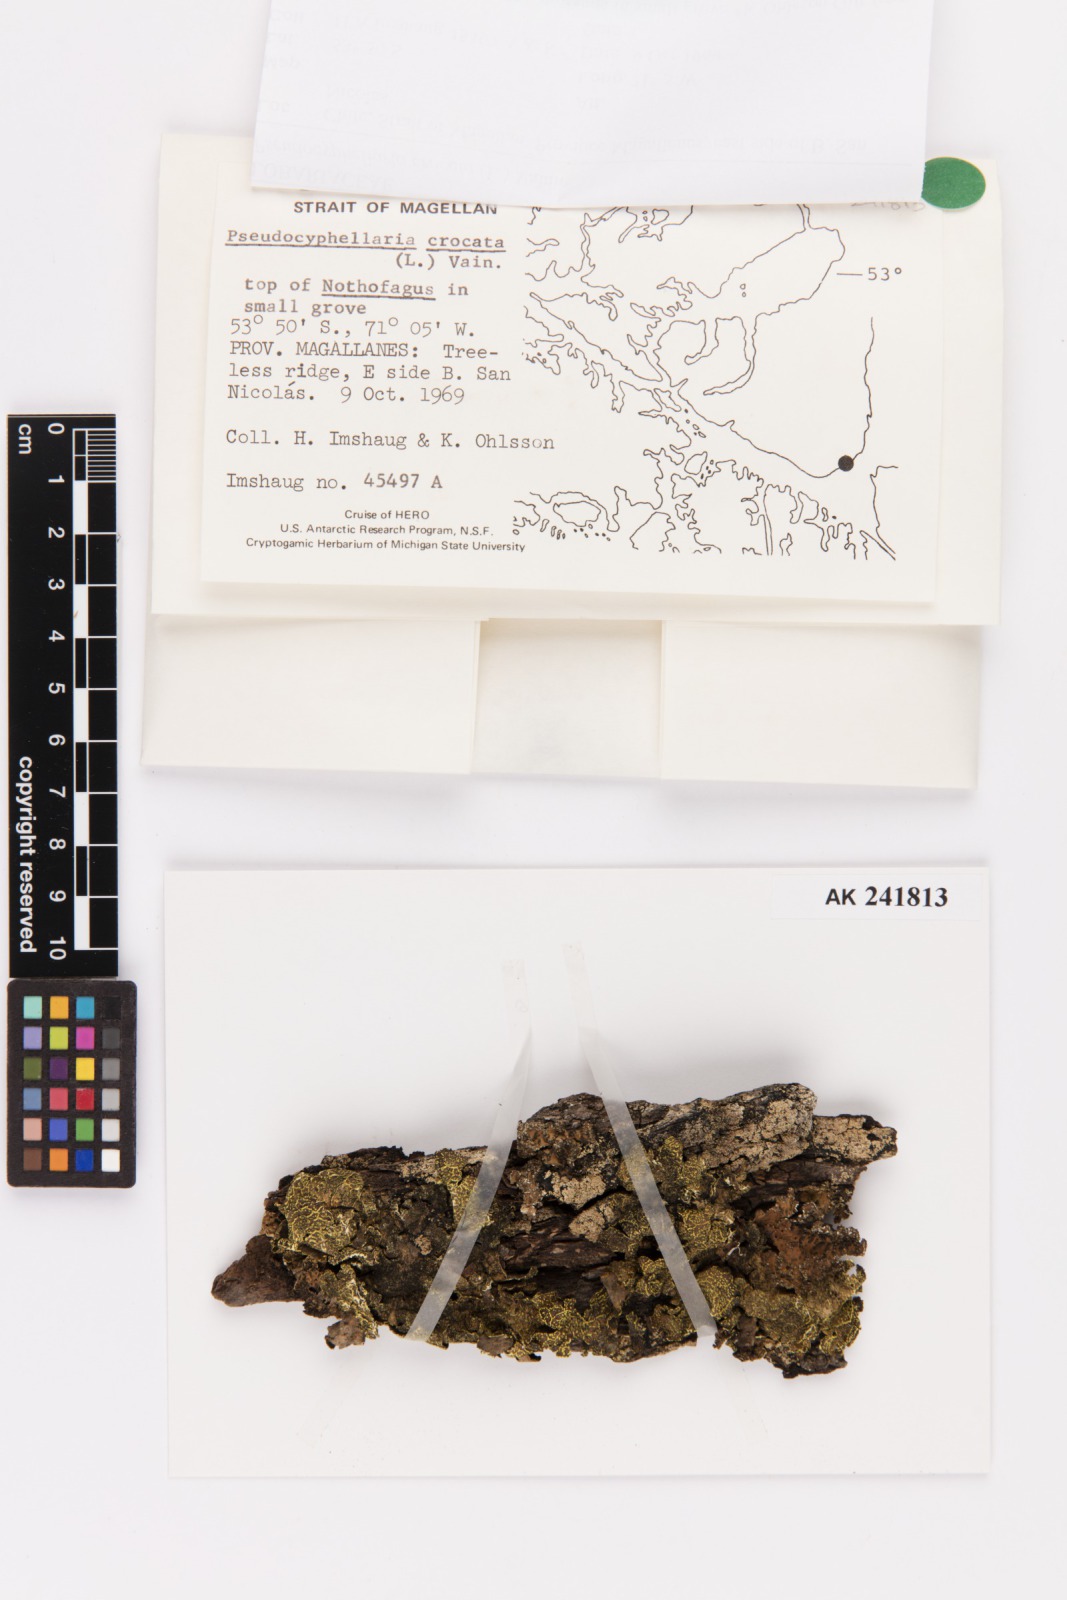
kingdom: Fungi
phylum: Ascomycota
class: Lecanoromycetes
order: Peltigerales
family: Lobariaceae
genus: Pseudocyphellaria
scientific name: Pseudocyphellaria crocata
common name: Golden specklebelly
